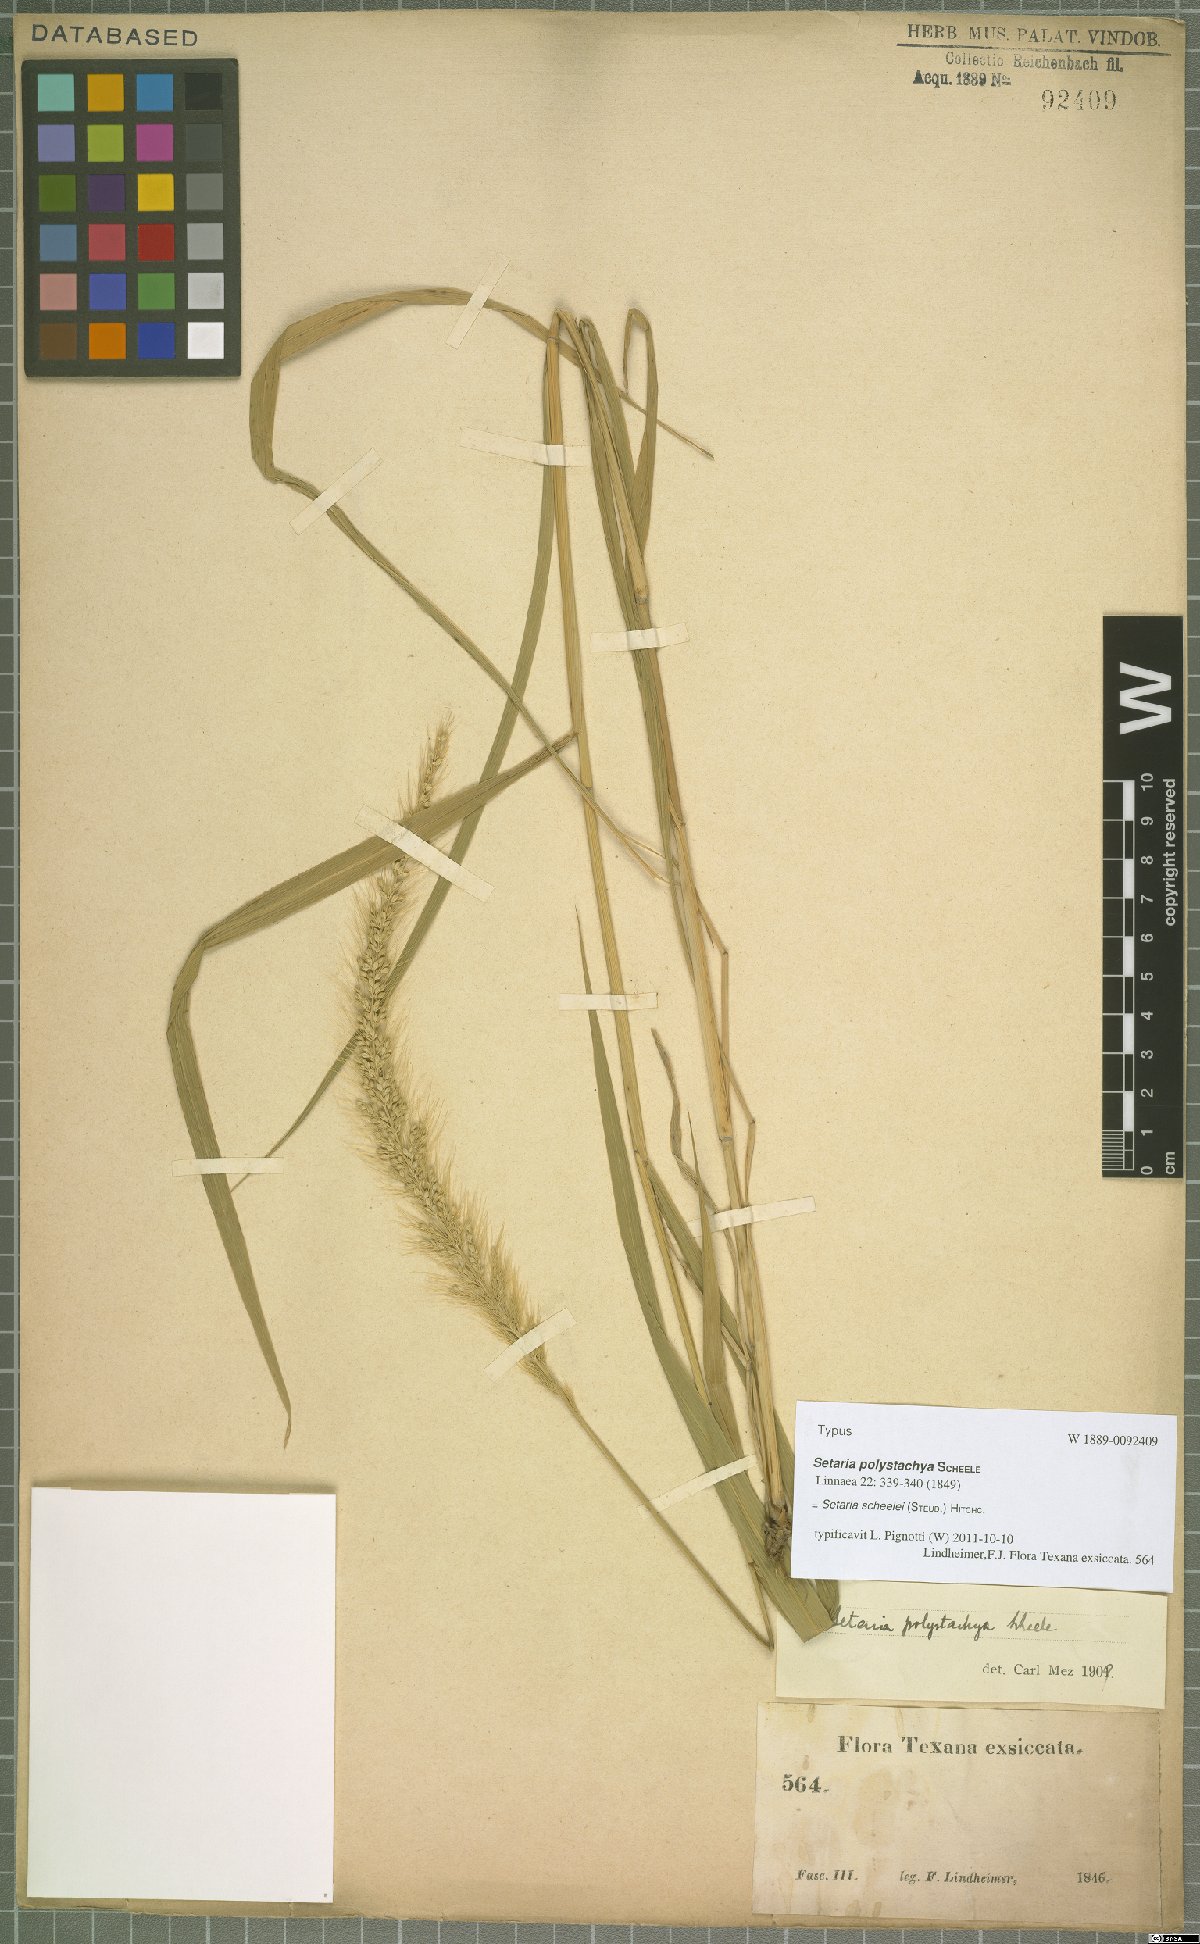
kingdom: Plantae
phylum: Tracheophyta
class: Liliopsida
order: Poales
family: Poaceae
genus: Setaria
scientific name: Setaria scheelei
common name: Southwestern bristle grass
